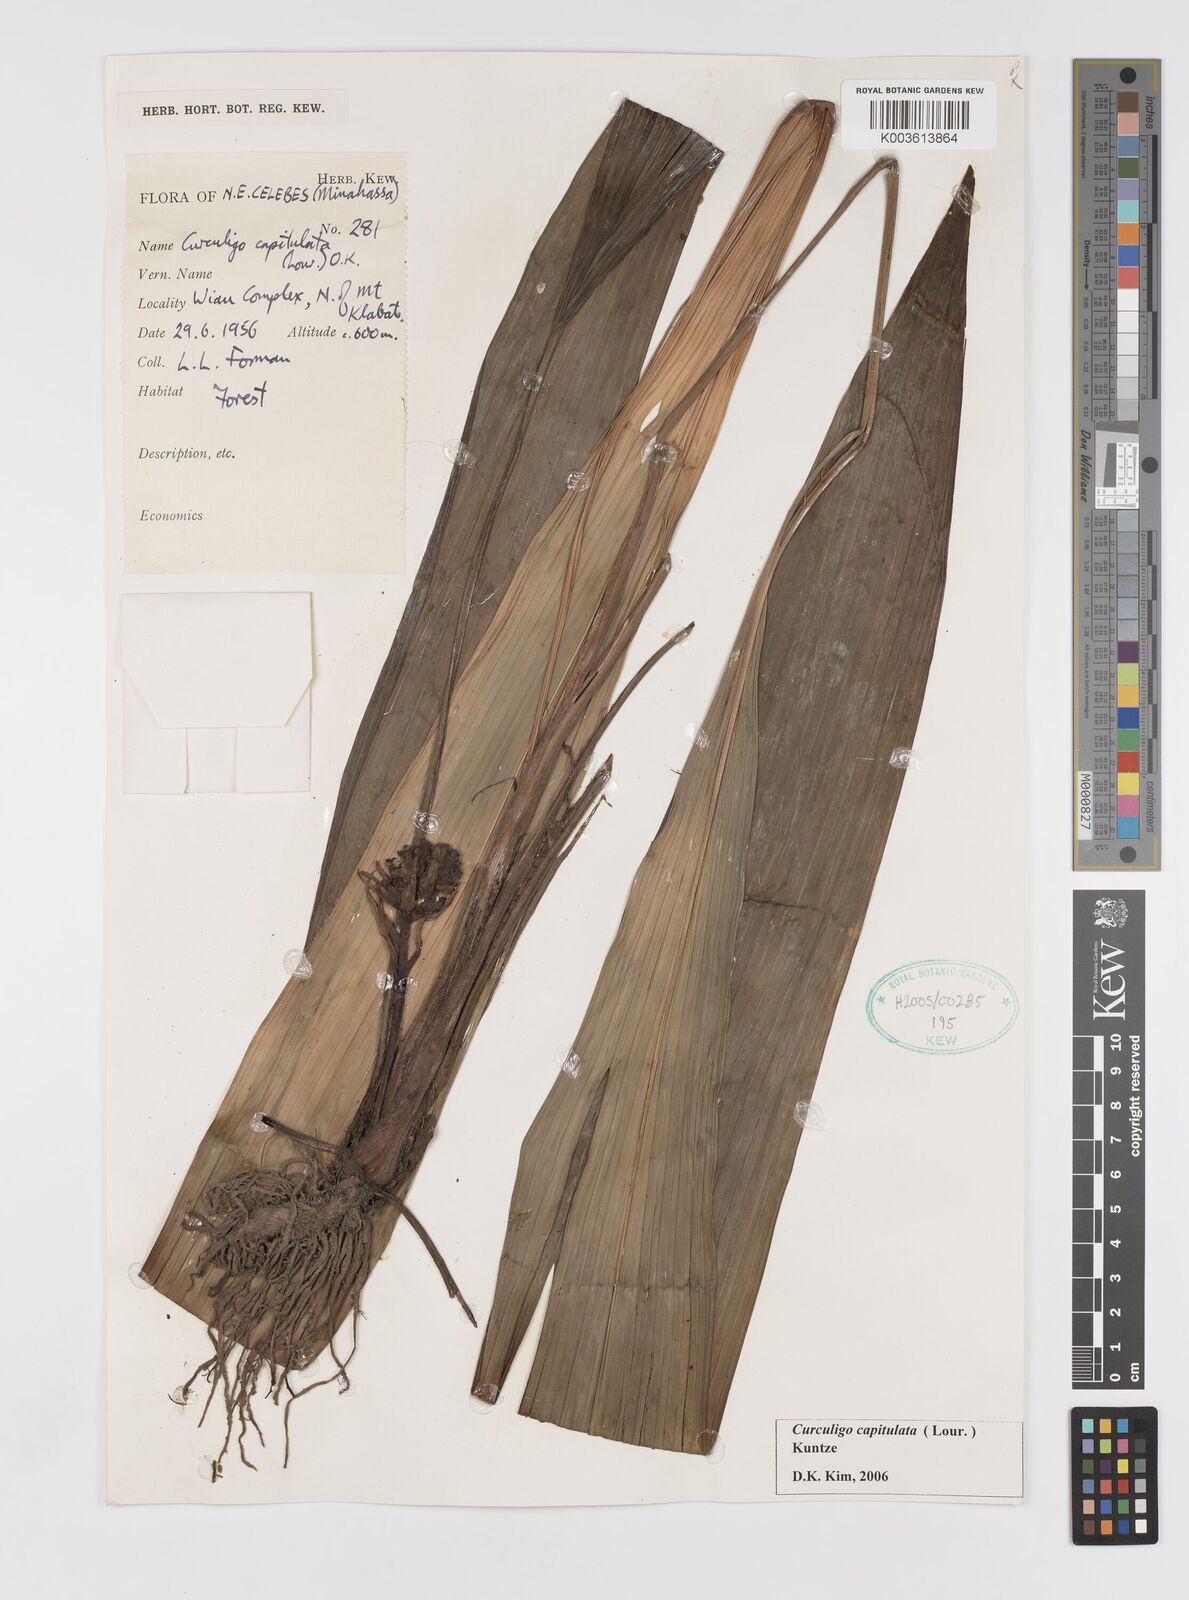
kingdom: Plantae
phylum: Tracheophyta
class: Liliopsida
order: Asparagales
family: Hypoxidaceae
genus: Curculigo
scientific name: Curculigo capitulata
